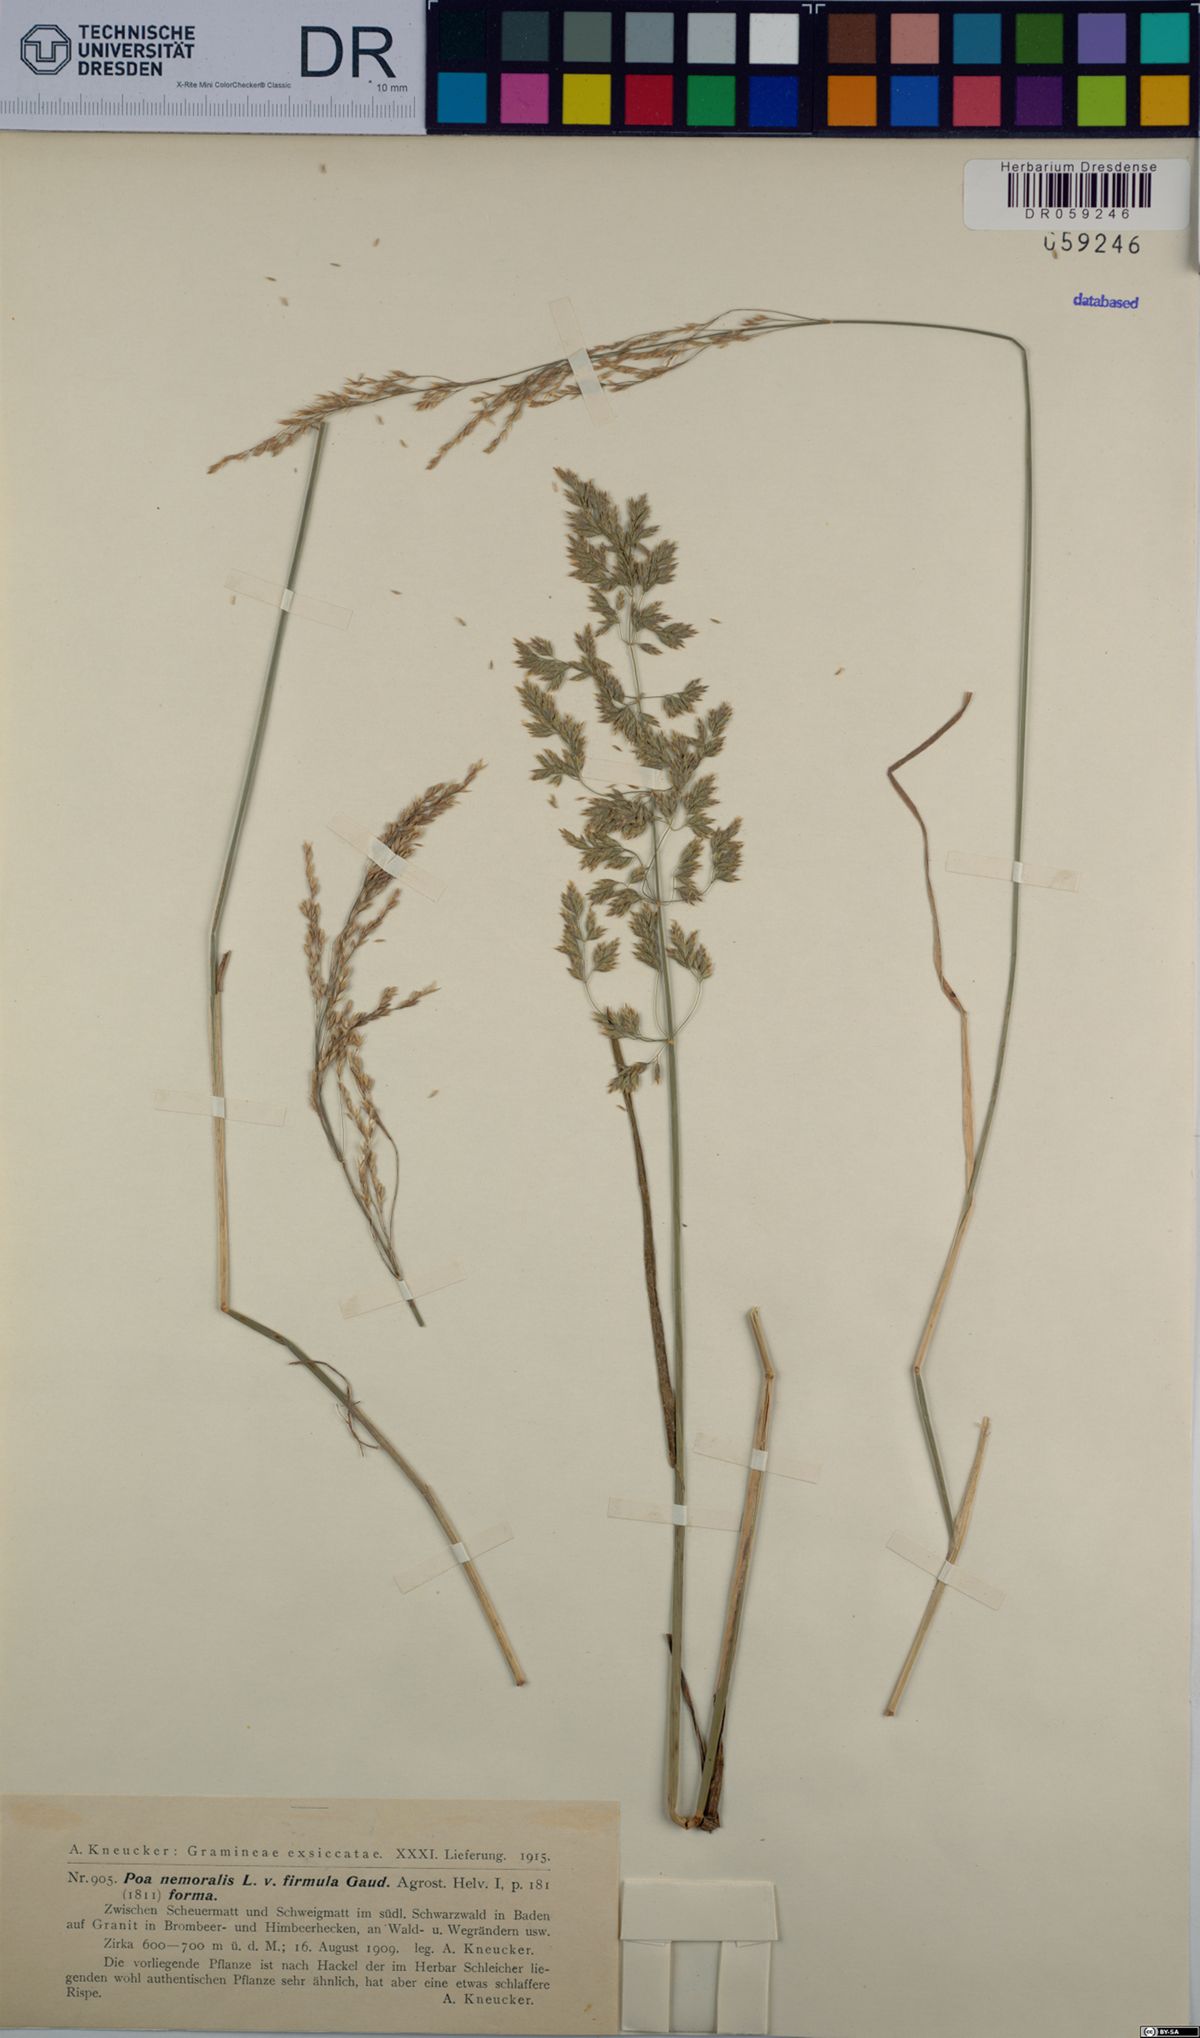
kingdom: Plantae
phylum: Tracheophyta
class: Liliopsida
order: Poales
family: Poaceae
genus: Poa
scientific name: Poa nemoralis
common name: Wood bluegrass
